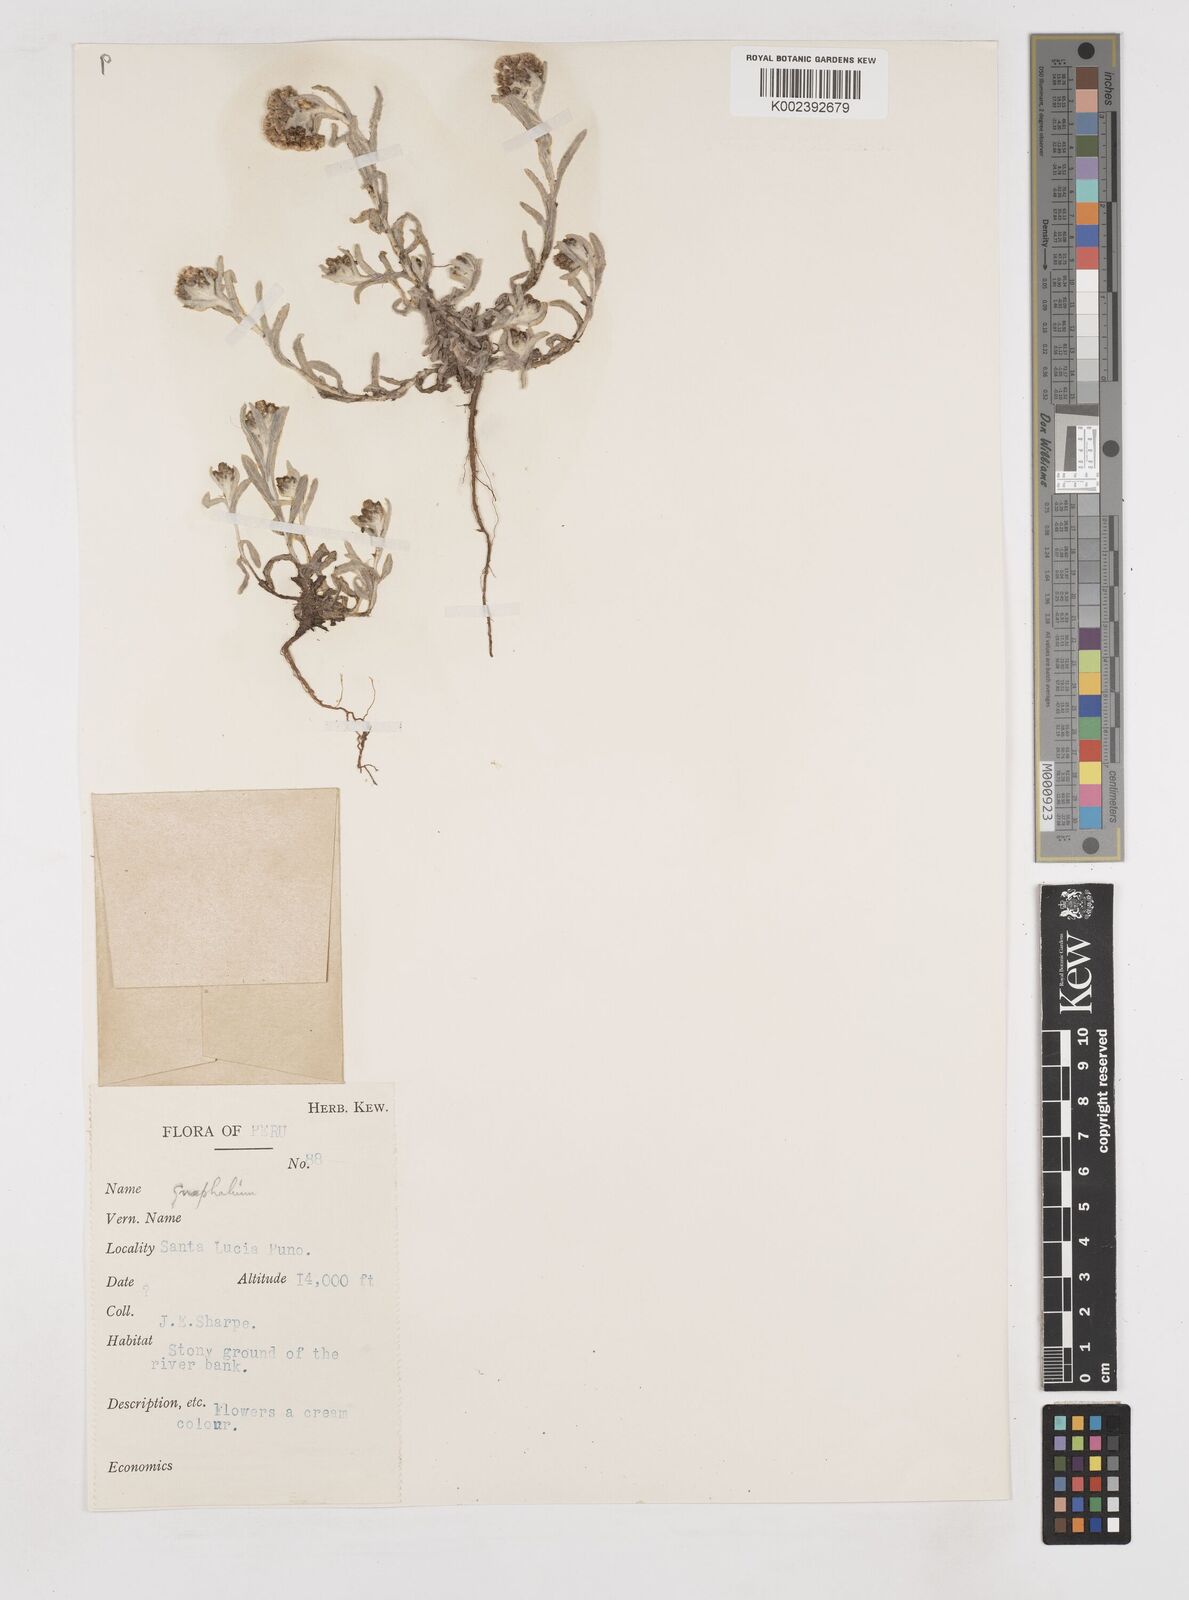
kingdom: Plantae
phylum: Tracheophyta
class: Magnoliopsida
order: Asterales
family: Asteraceae
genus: Gnaphalium
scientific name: Gnaphalium
